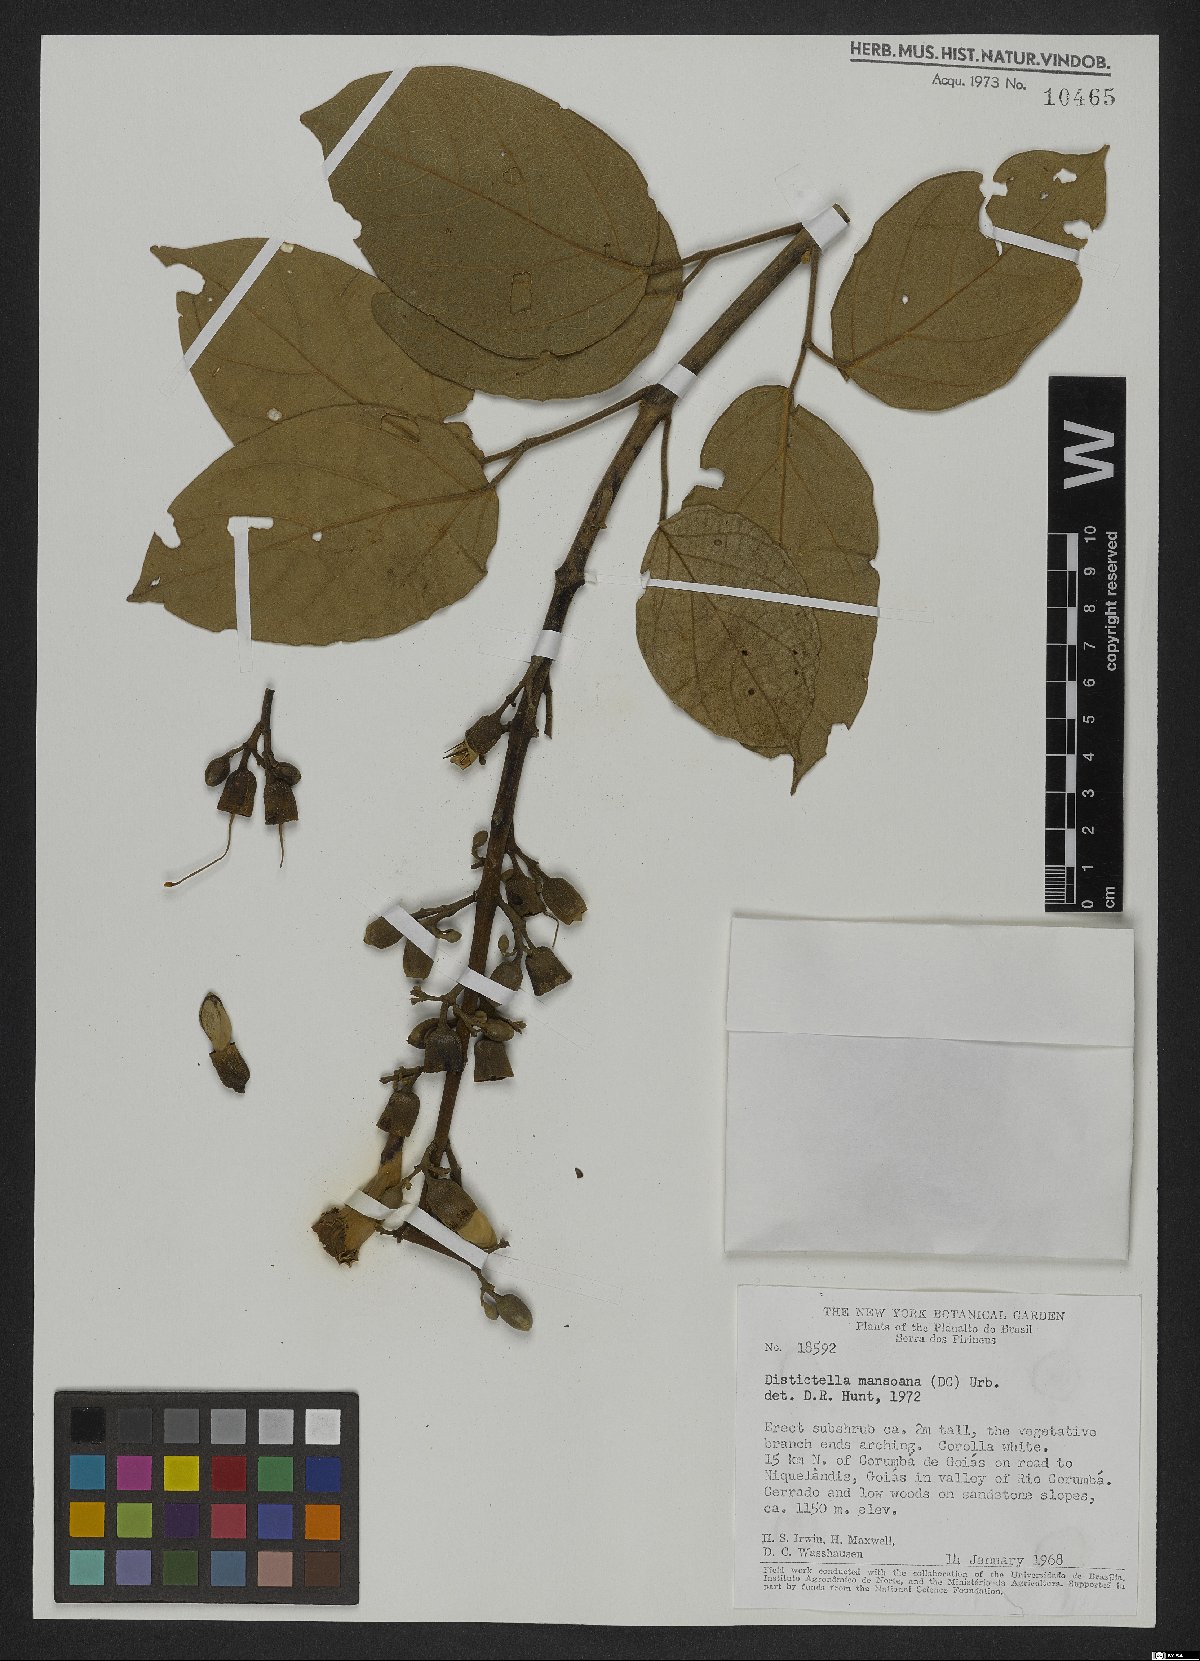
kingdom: Plantae
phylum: Tracheophyta
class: Magnoliopsida
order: Lamiales
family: Bignoniaceae
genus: Amphilophium
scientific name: Amphilophium mansoanum
